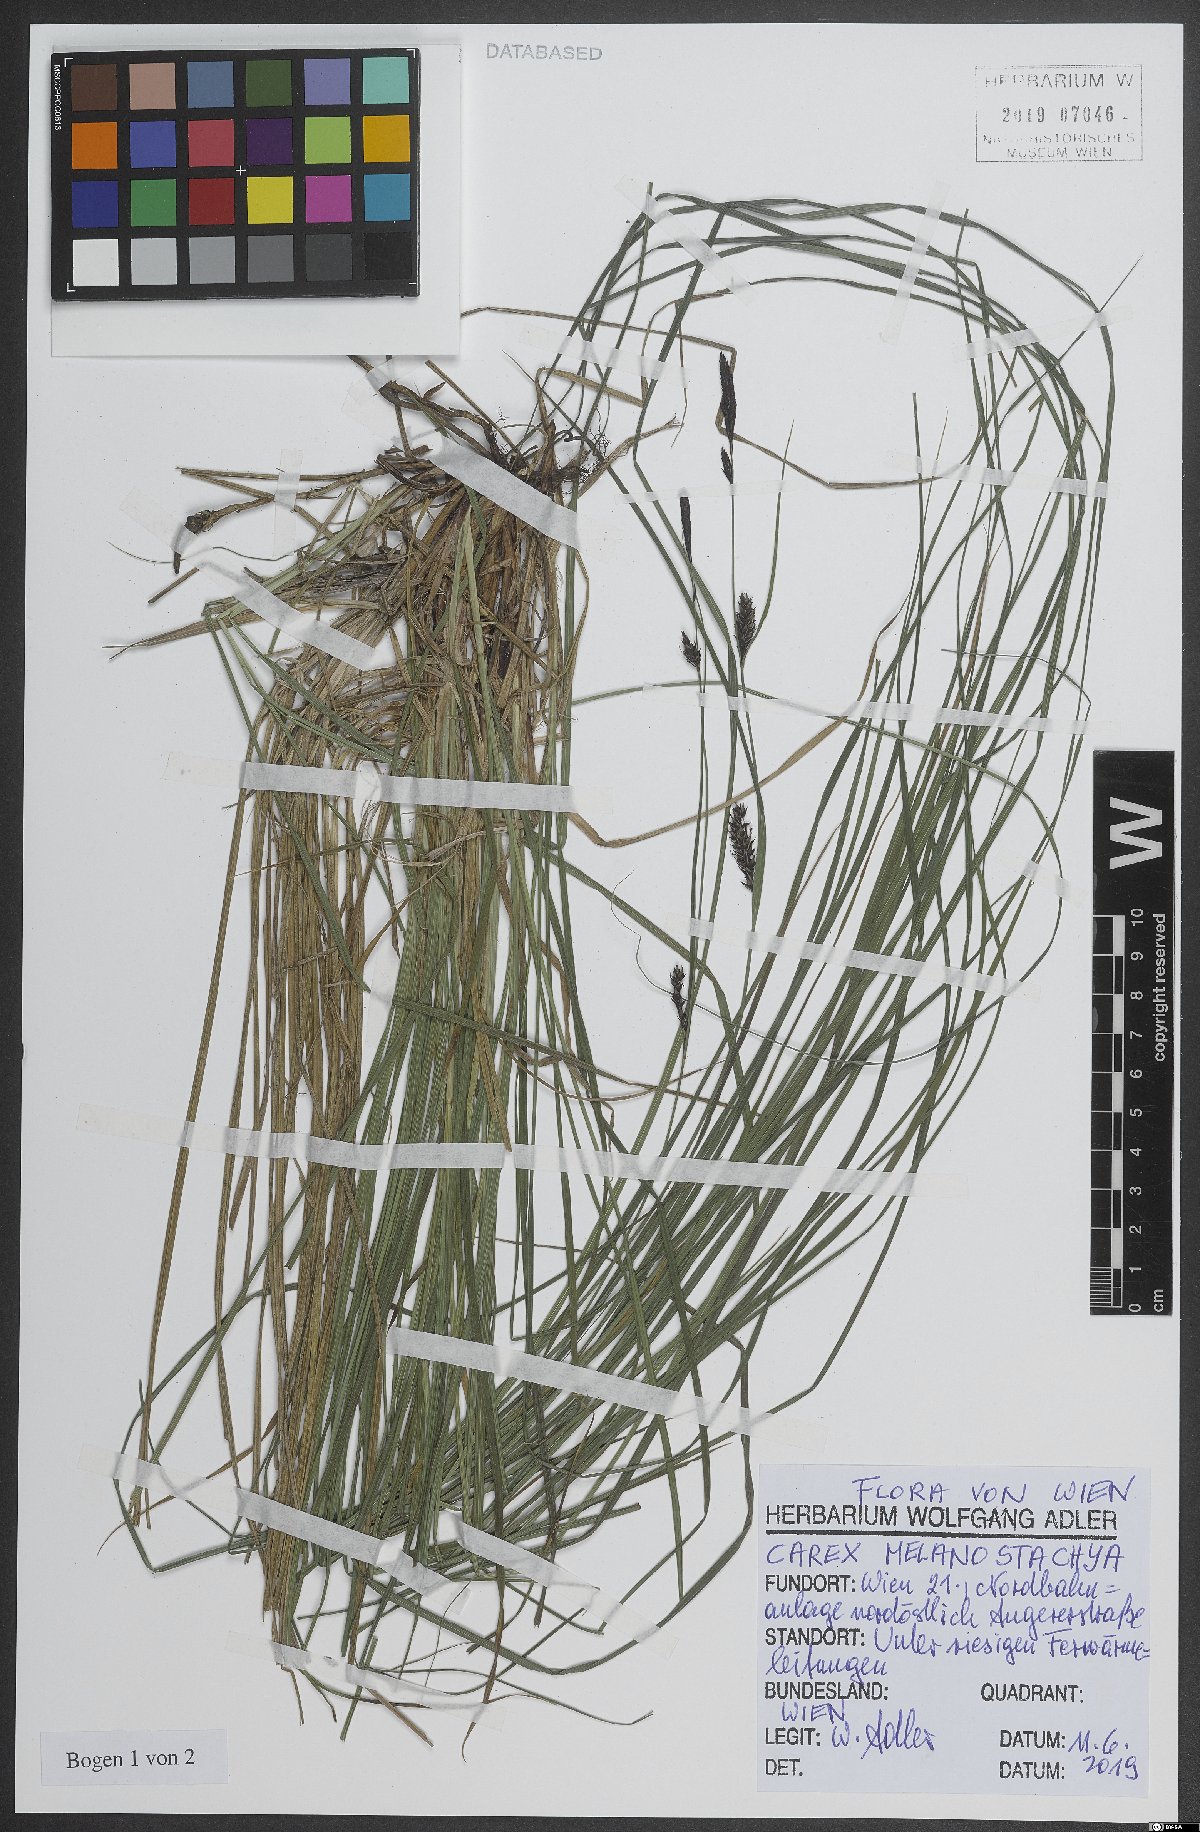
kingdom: Plantae
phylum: Tracheophyta
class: Liliopsida
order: Poales
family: Cyperaceae
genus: Carex
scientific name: Carex melanostachya
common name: Black-spiked sedge
